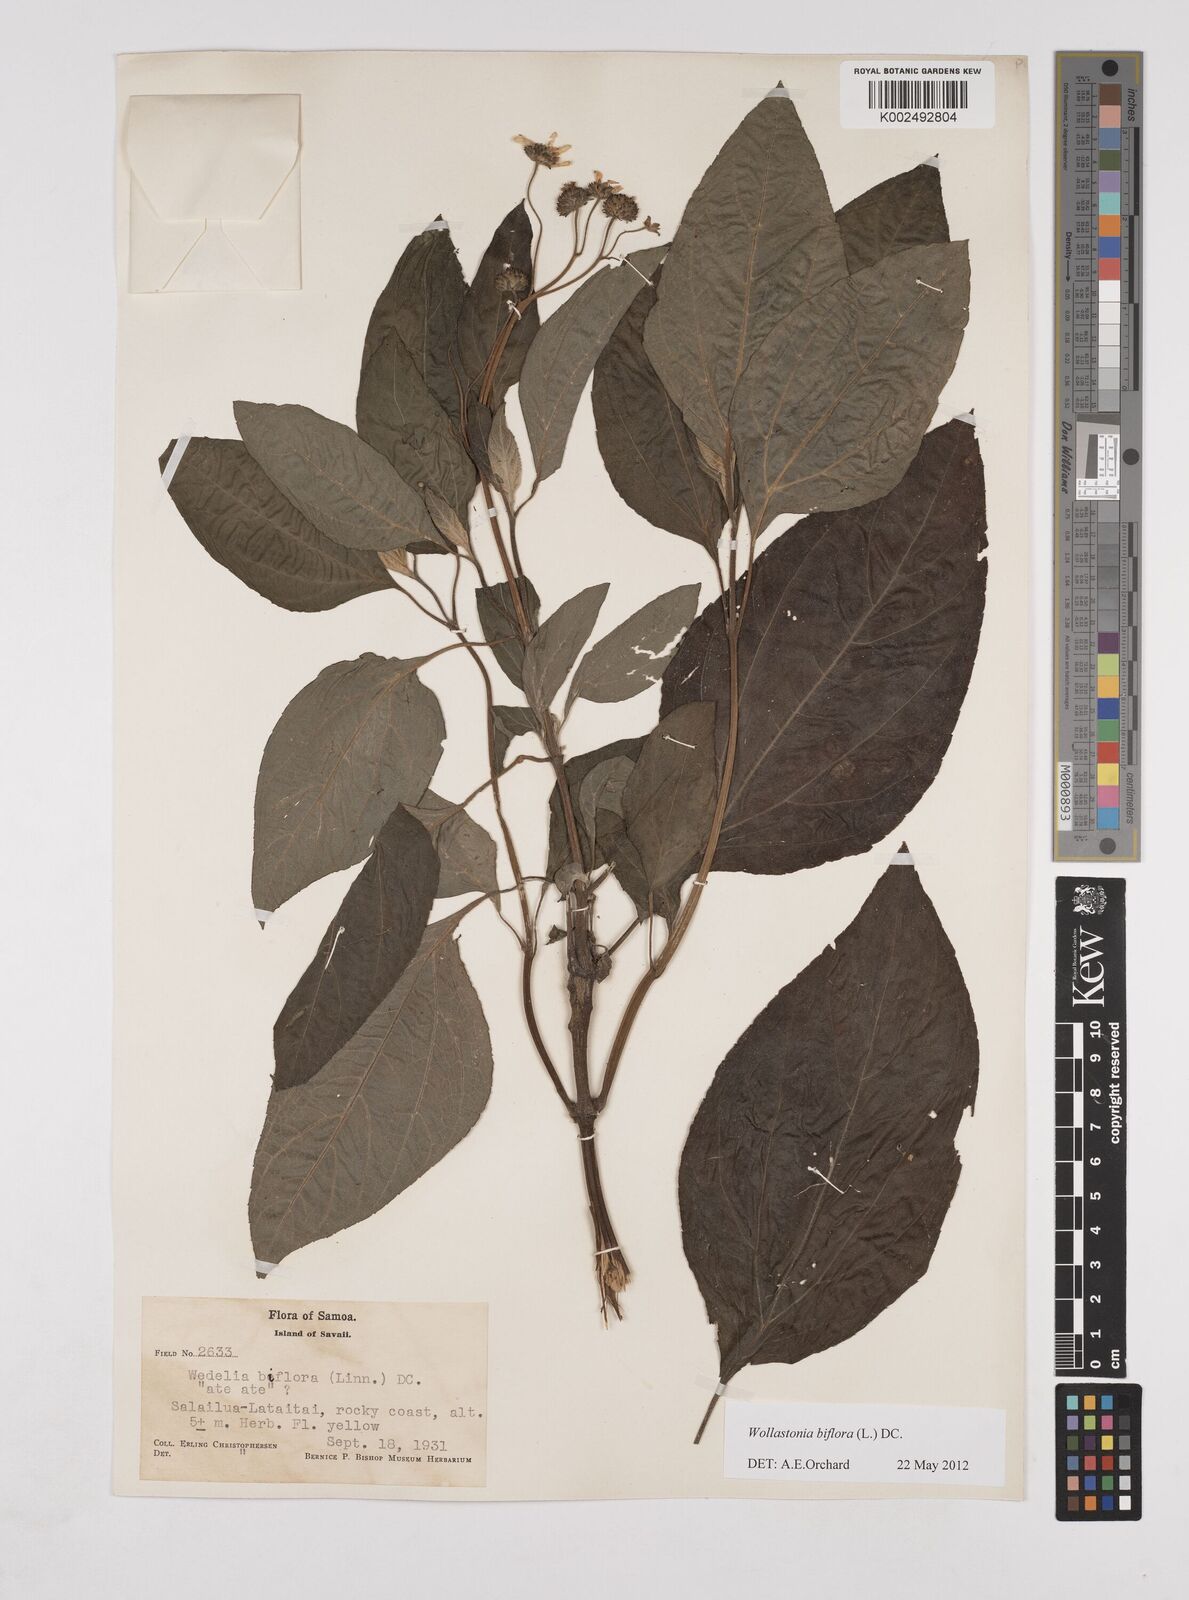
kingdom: Plantae
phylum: Tracheophyta
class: Magnoliopsida
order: Asterales
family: Asteraceae
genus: Wollastonia
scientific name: Wollastonia biflora
